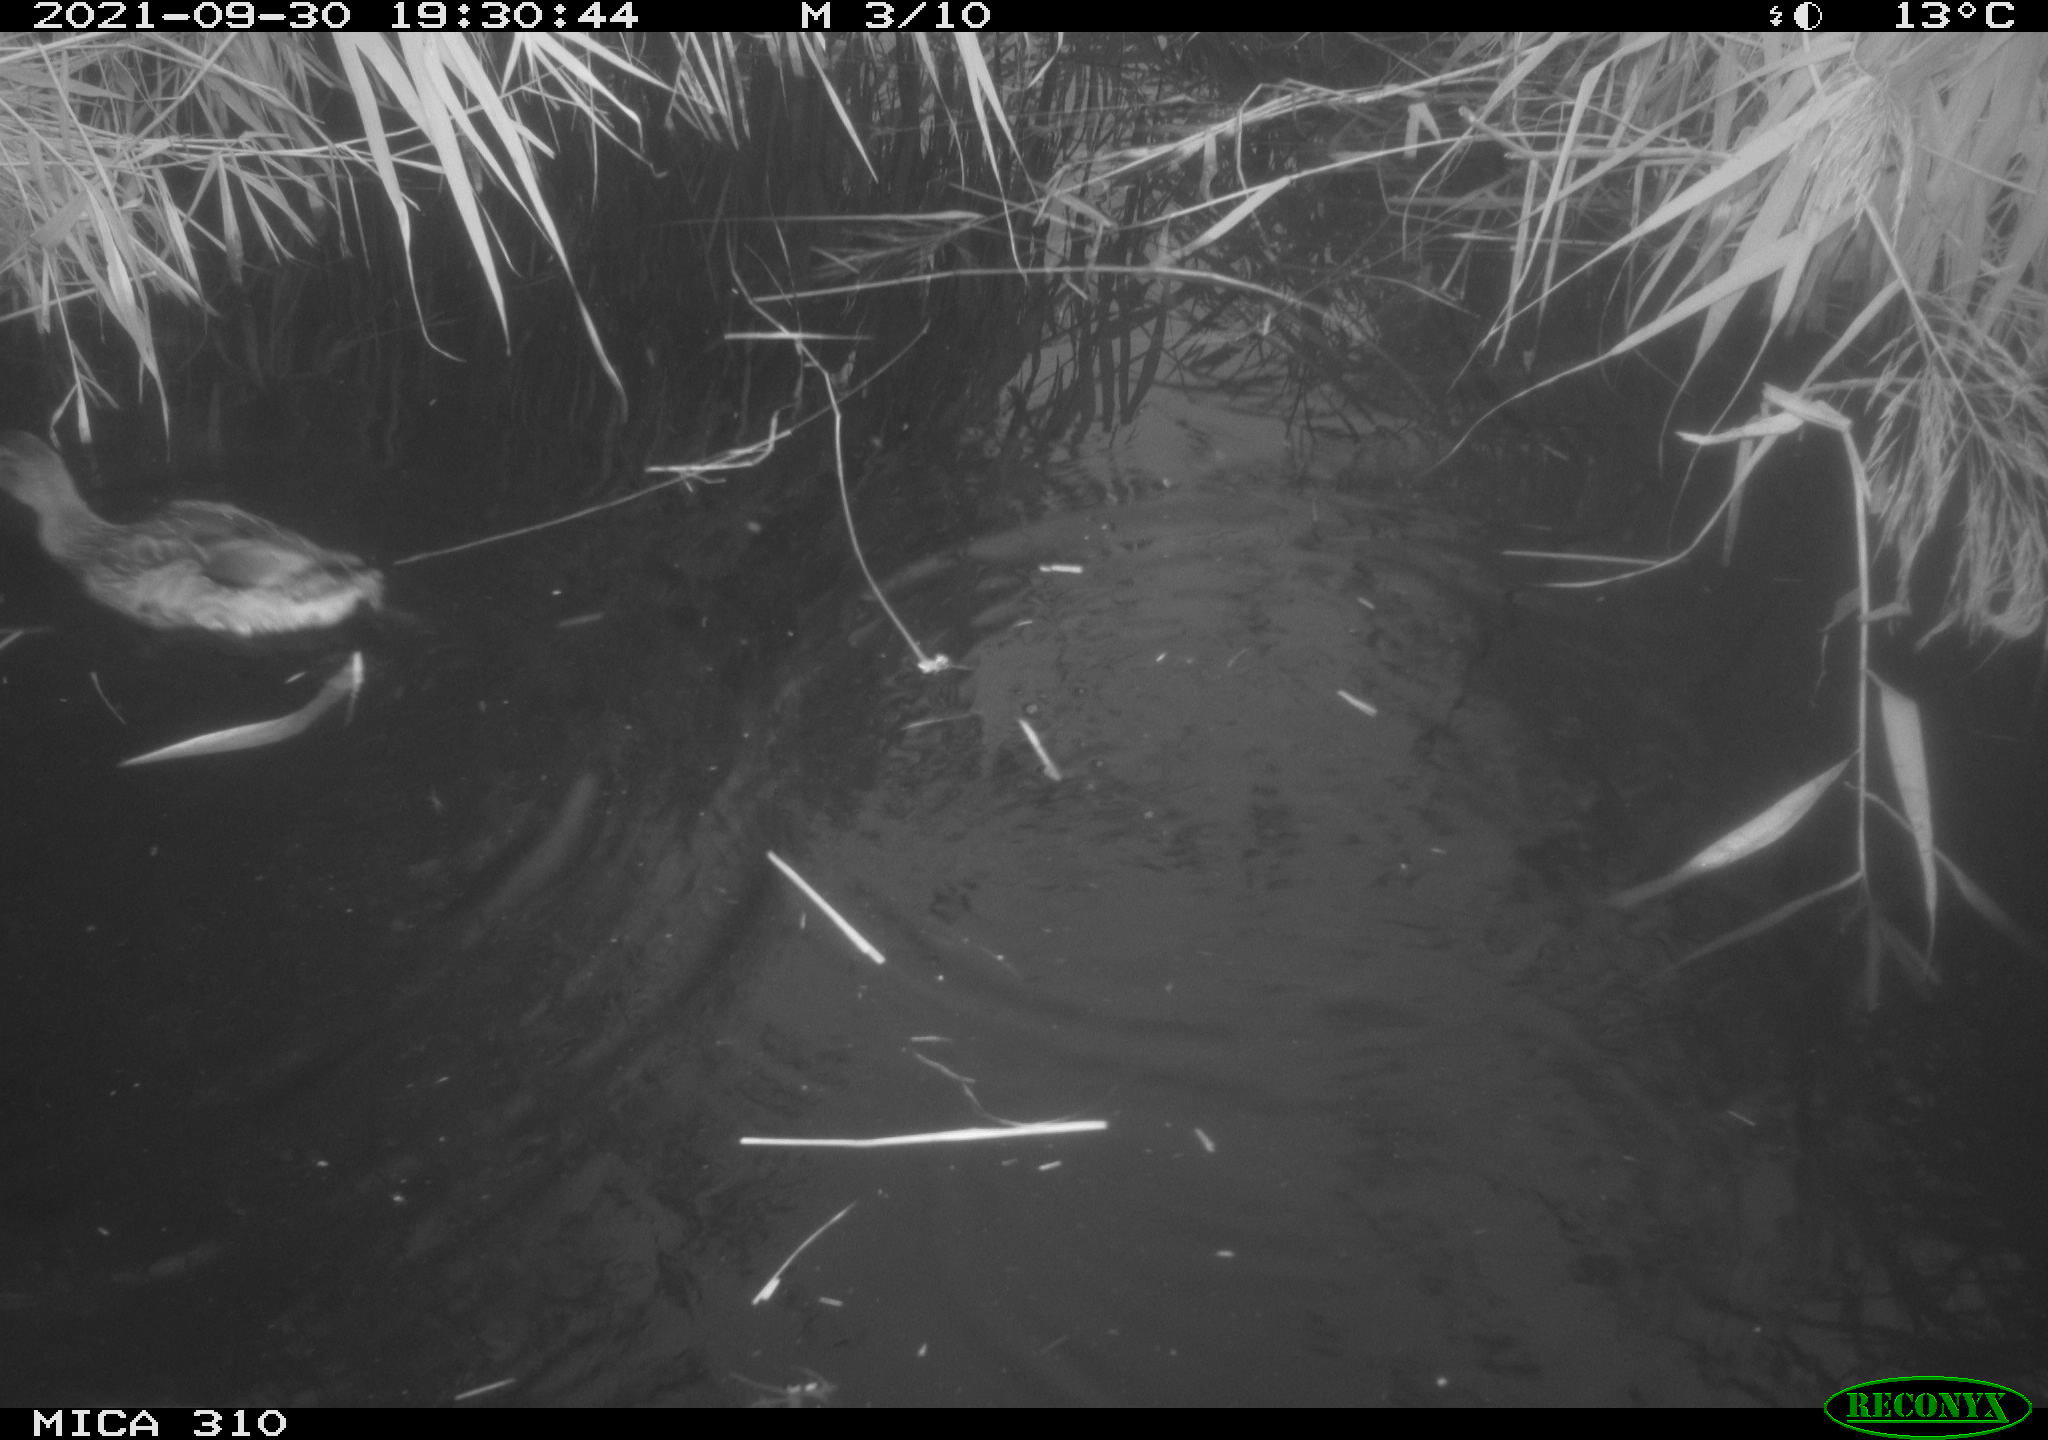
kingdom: Animalia
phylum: Chordata
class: Aves
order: Anseriformes
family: Anatidae
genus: Mareca
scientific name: Mareca strepera
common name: Gadwall
